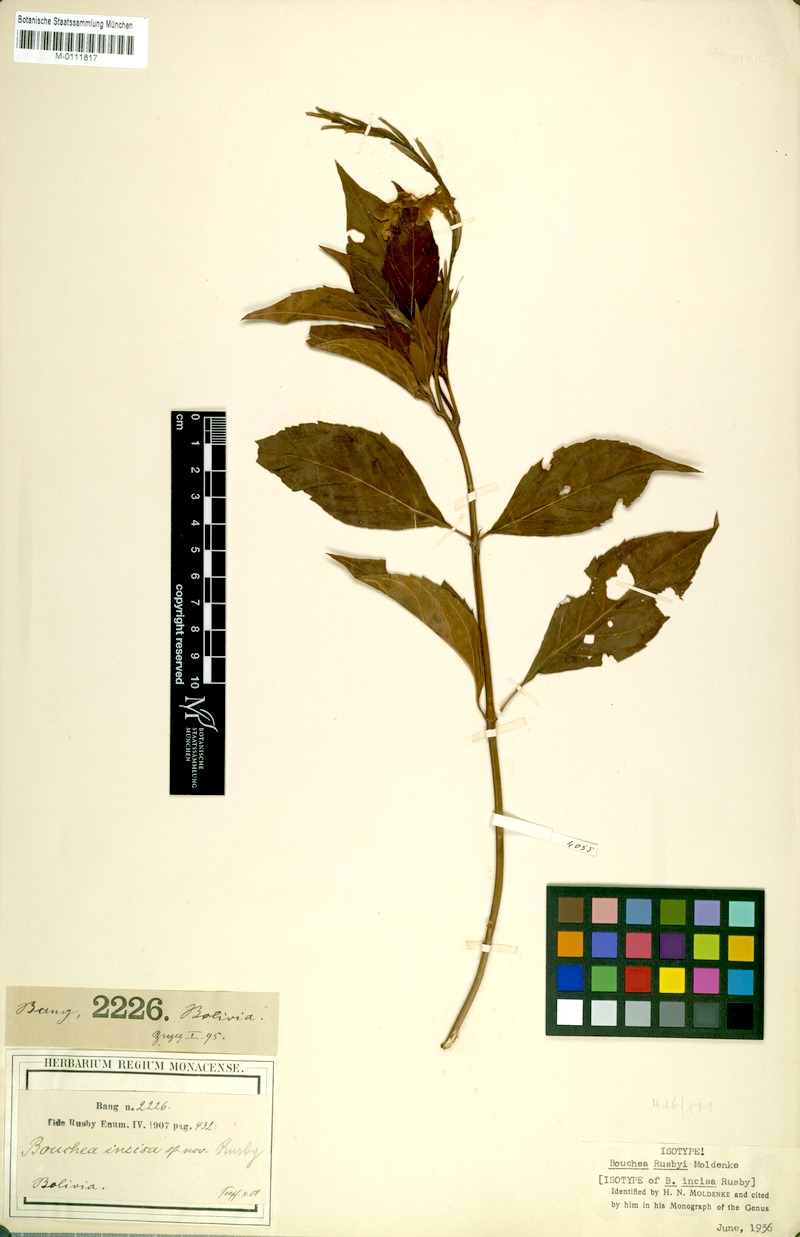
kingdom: Plantae
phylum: Tracheophyta
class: Magnoliopsida
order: Lamiales
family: Verbenaceae
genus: Bouchea
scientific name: Bouchea rusbyi
